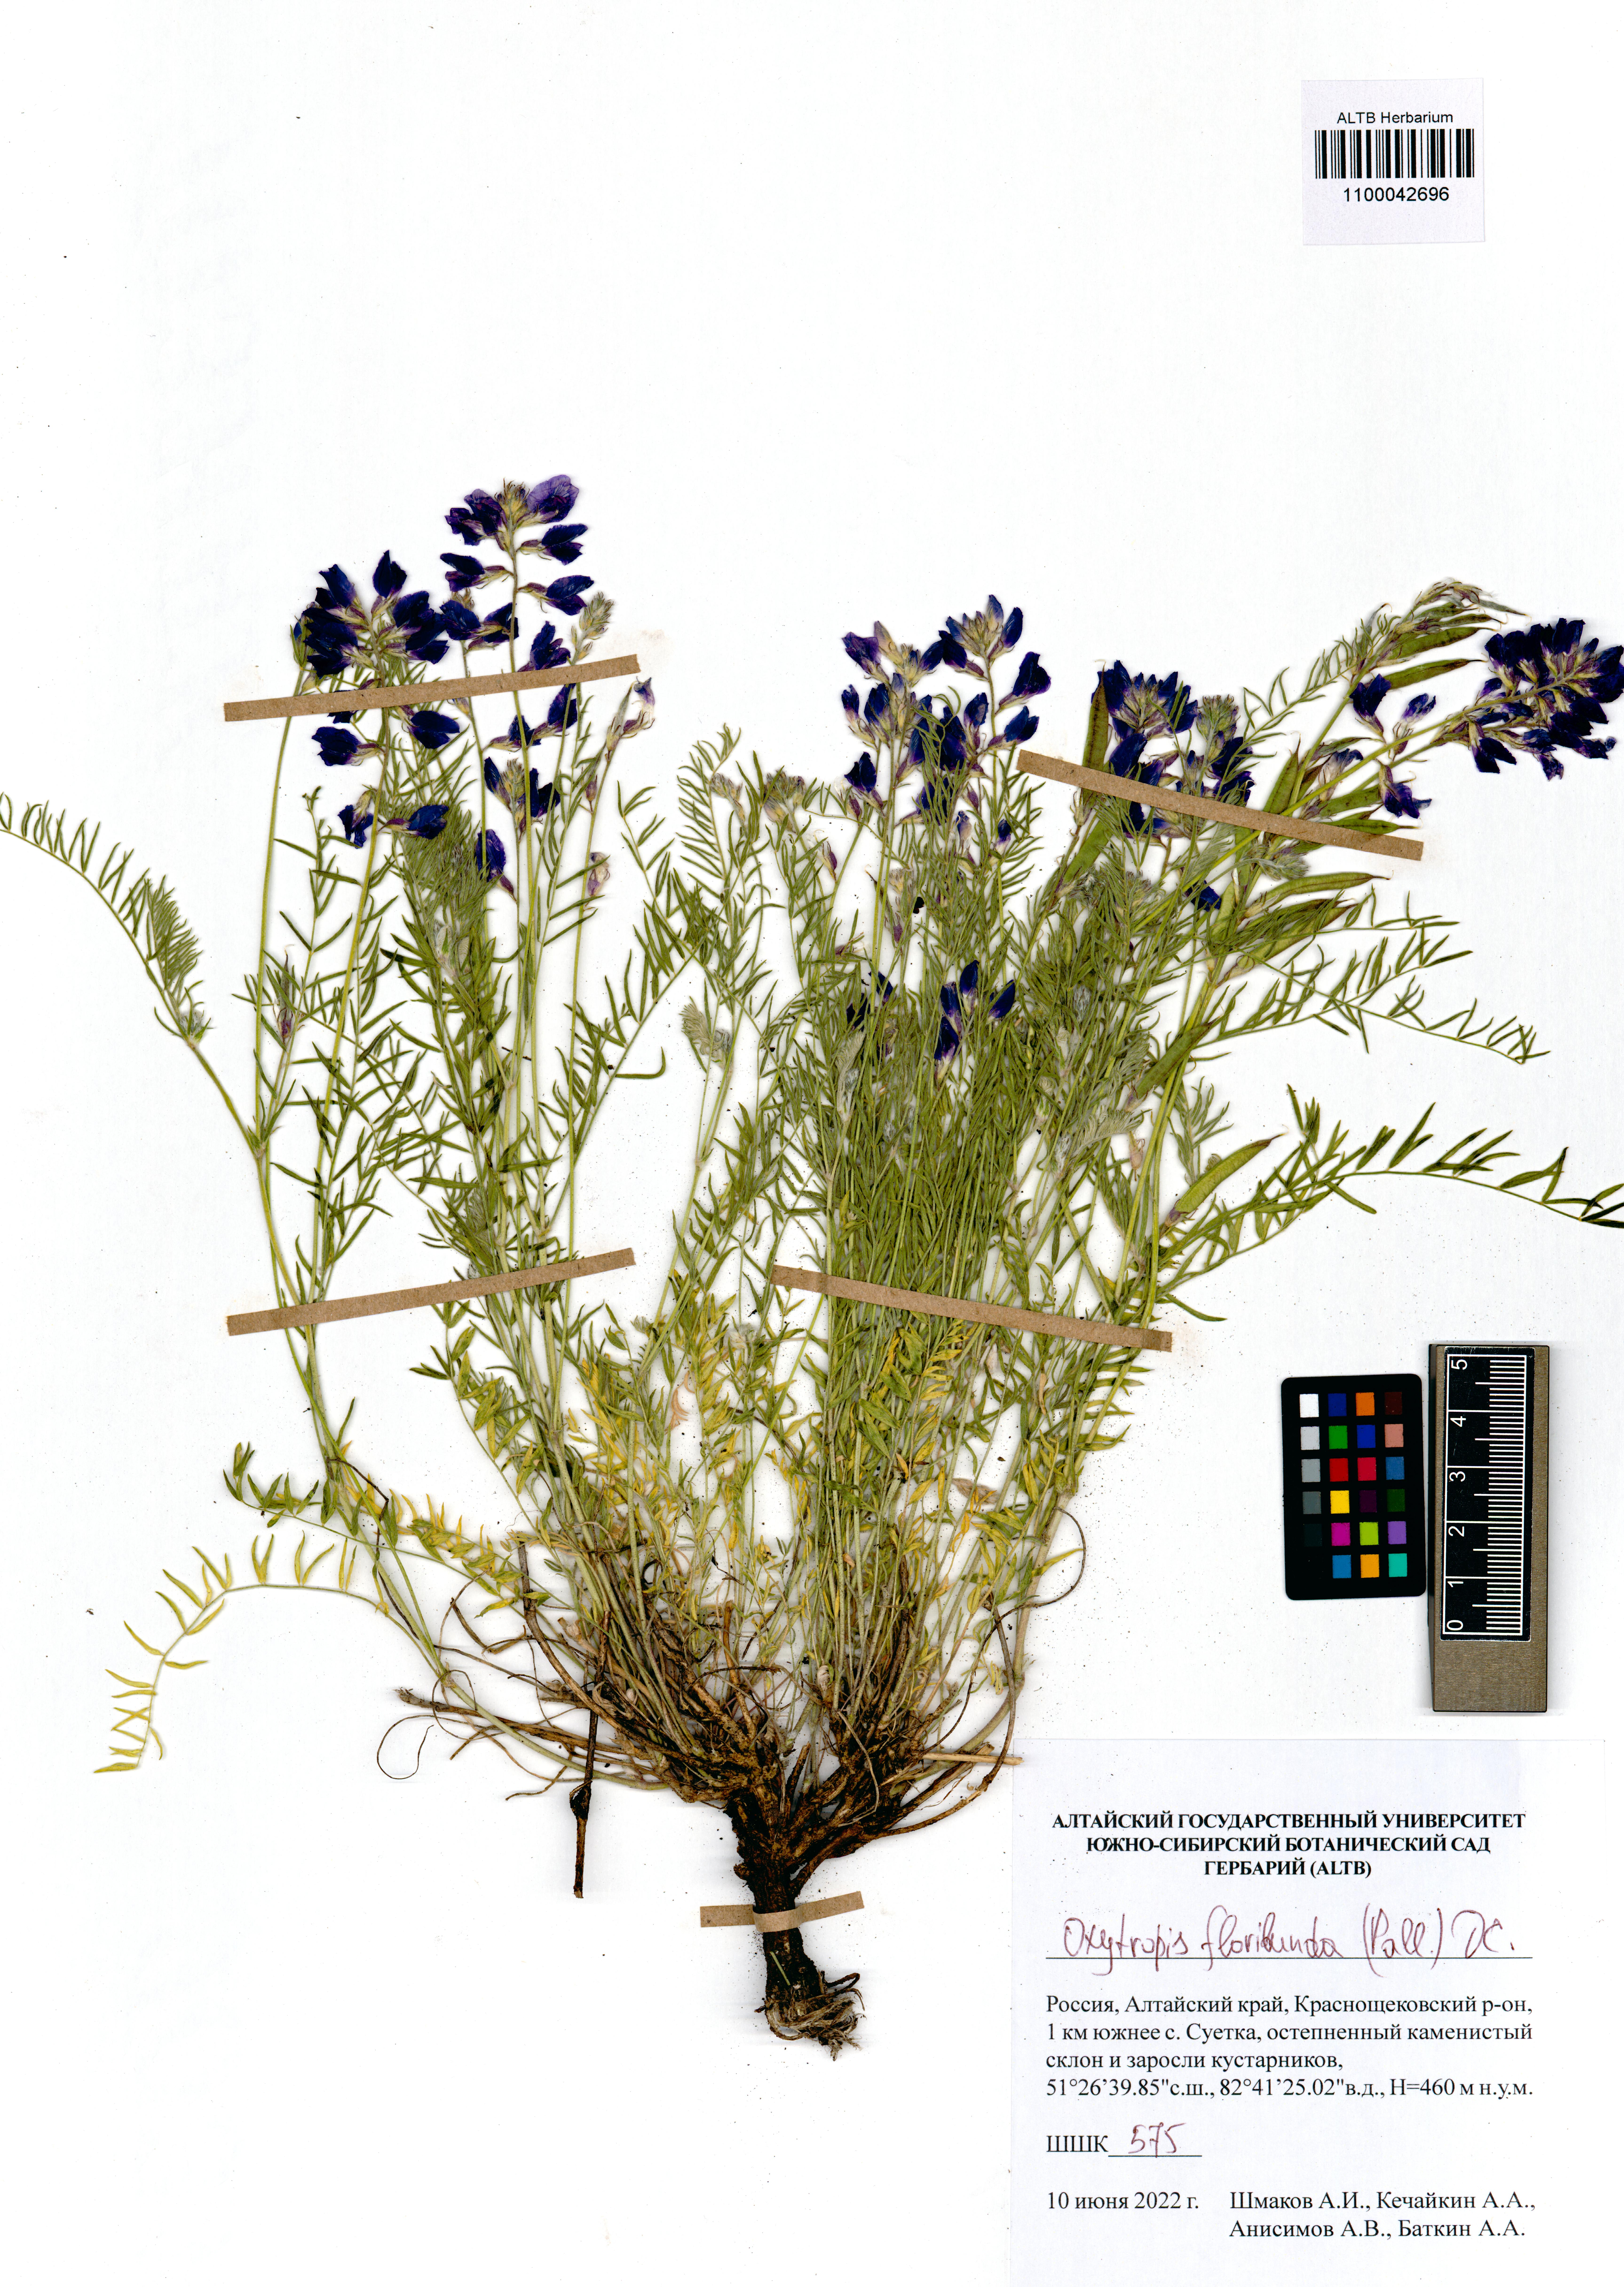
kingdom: Plantae
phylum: Tracheophyta
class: Magnoliopsida
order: Fabales
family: Fabaceae
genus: Oxytropis
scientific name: Oxytropis floribunda
